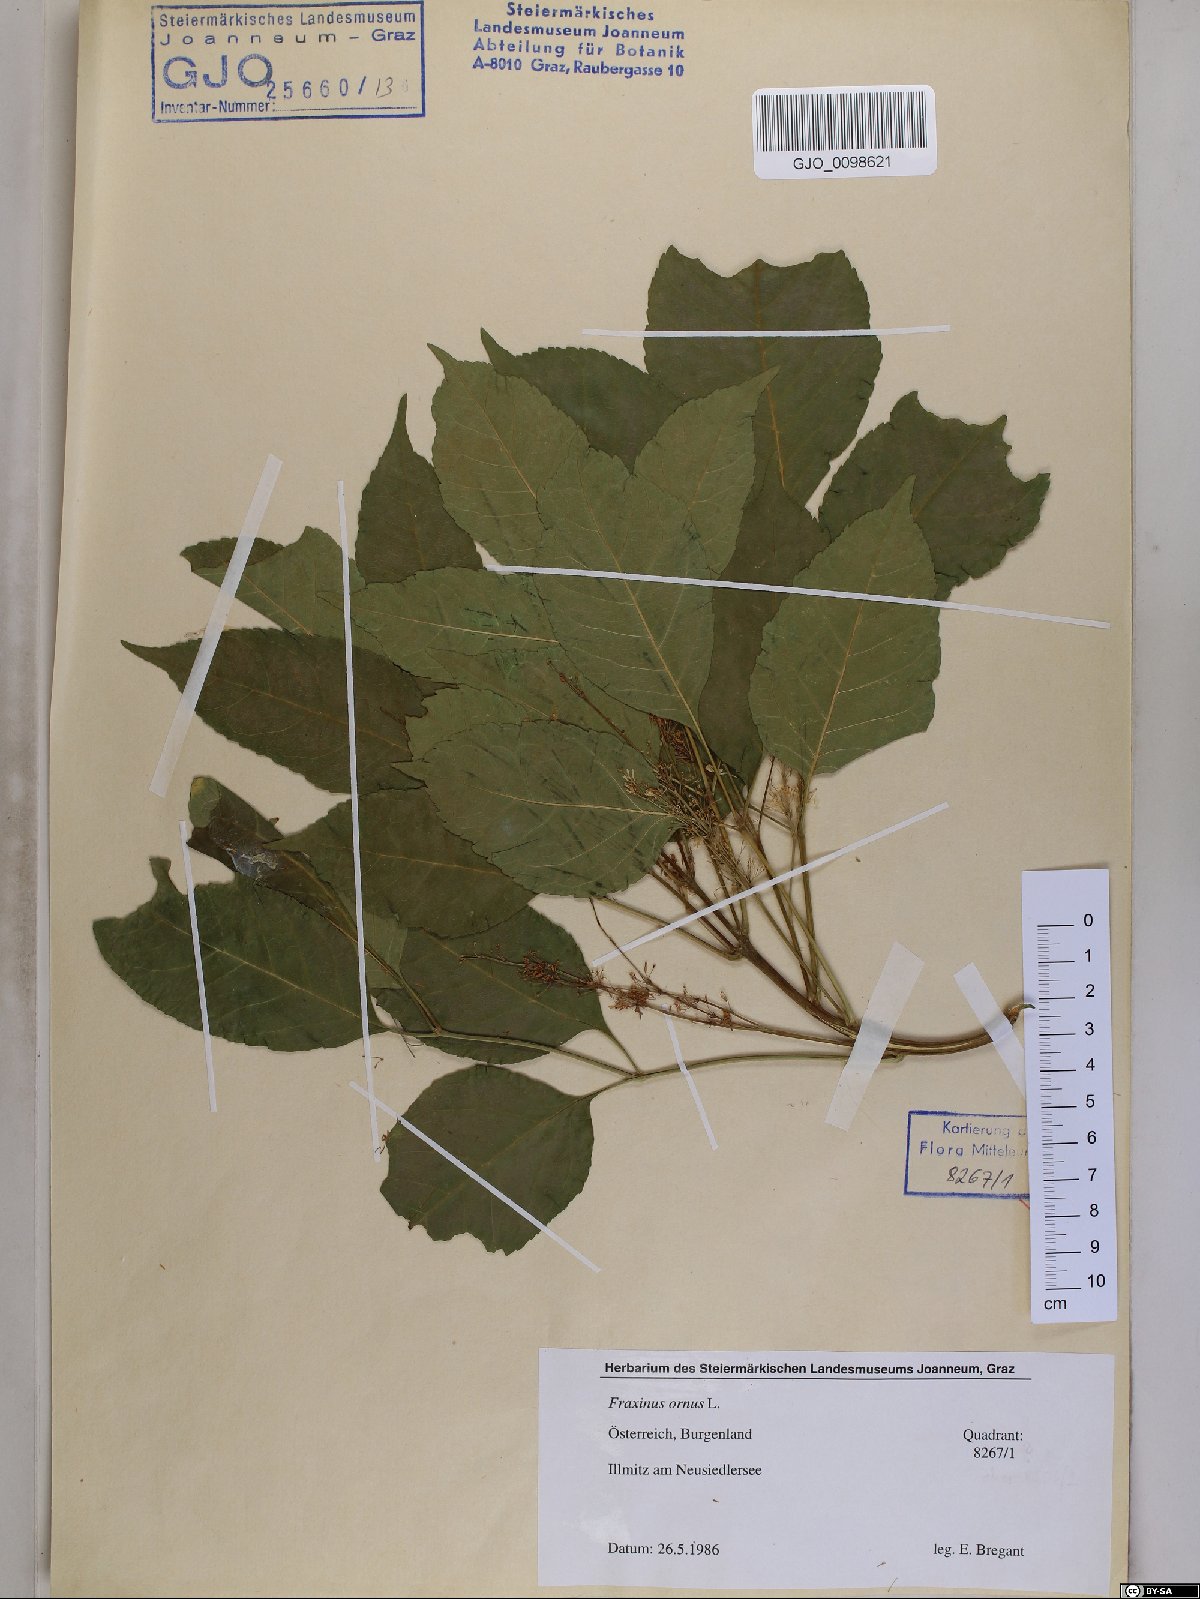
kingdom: Plantae
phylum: Tracheophyta
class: Magnoliopsida
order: Lamiales
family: Oleaceae
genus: Fraxinus
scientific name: Fraxinus ornus
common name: Manna ash
